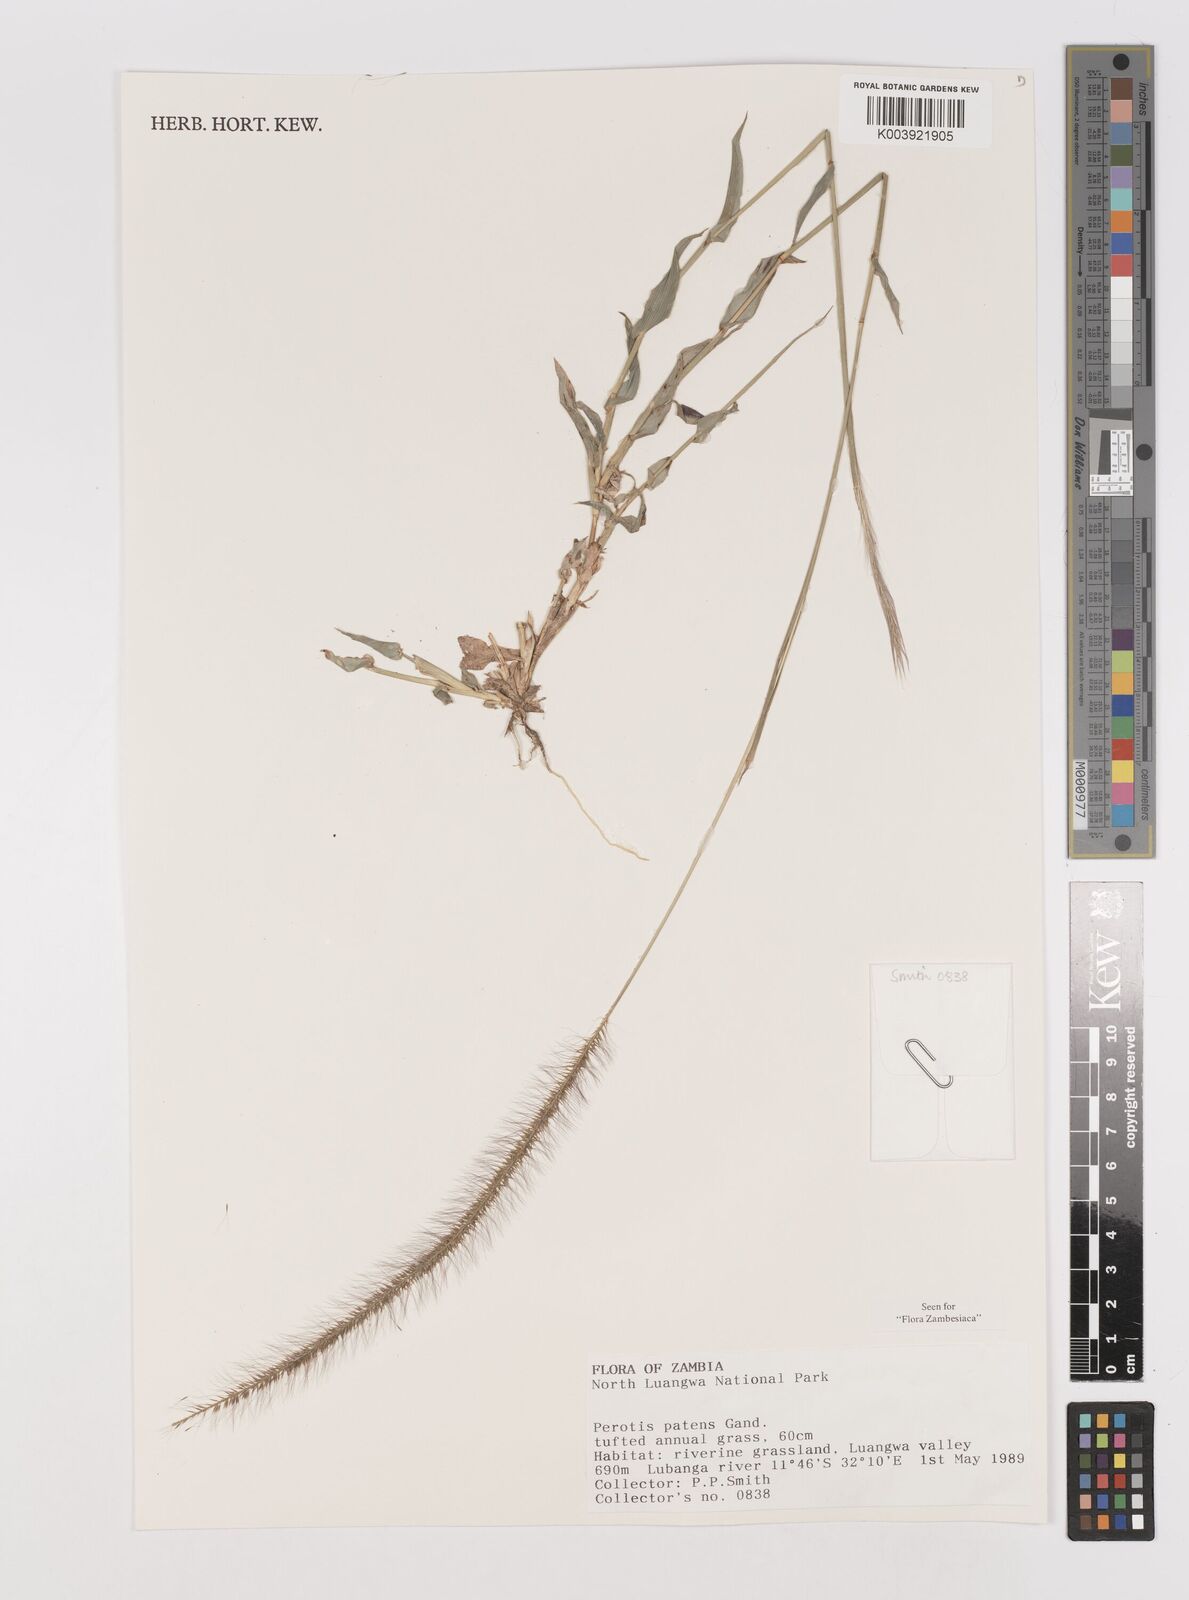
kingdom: Plantae
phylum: Tracheophyta
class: Liliopsida
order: Poales
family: Poaceae
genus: Perotis
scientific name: Perotis patens
